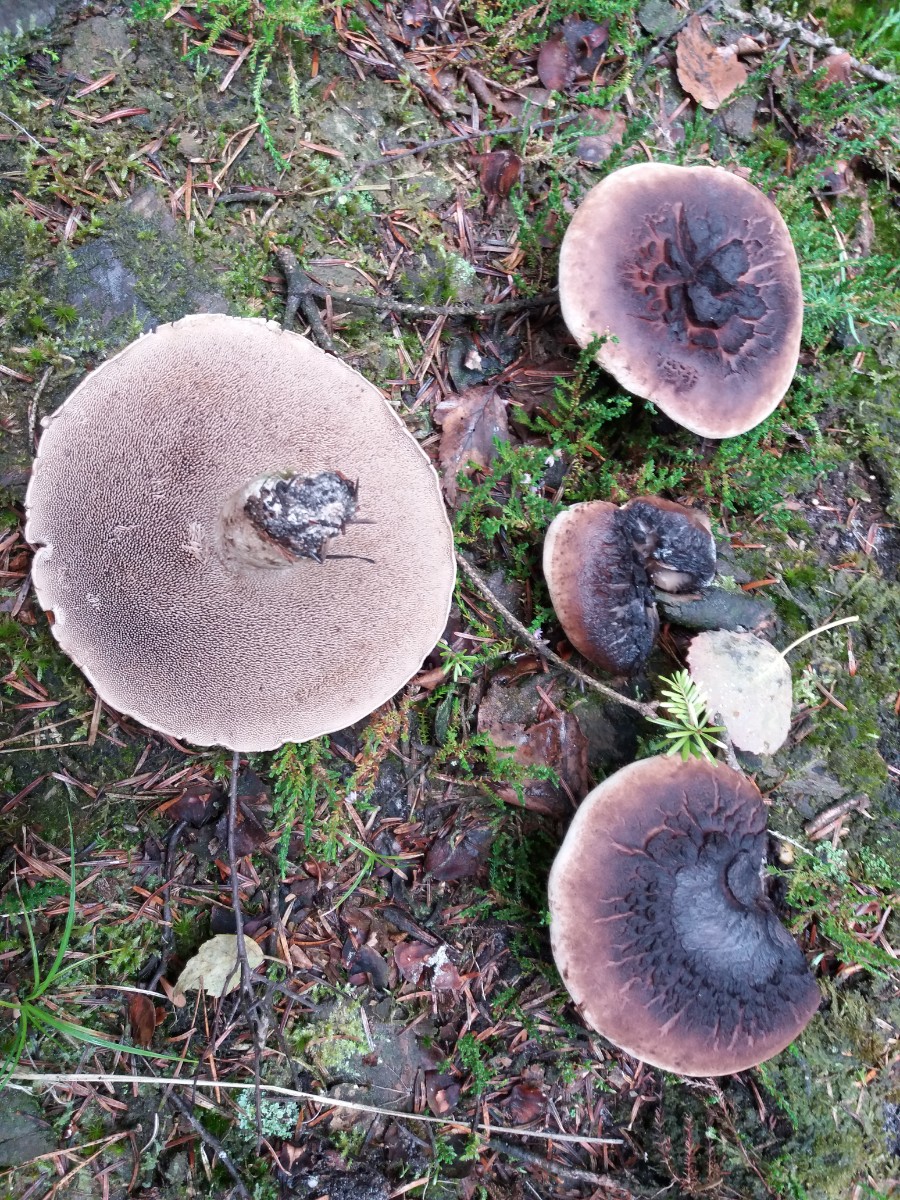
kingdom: Fungi
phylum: Basidiomycota
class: Agaricomycetes
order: Thelephorales
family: Bankeraceae
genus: Sarcodon
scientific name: Sarcodon imbricatus
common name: skællet kødpigsvamp
